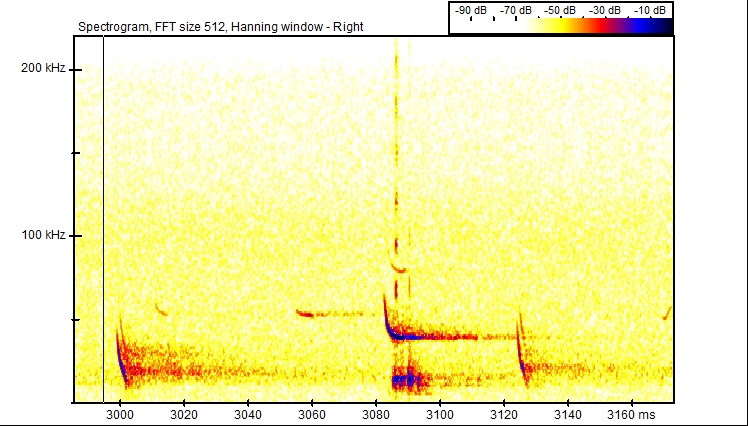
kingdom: Animalia
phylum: Chordata
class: Mammalia
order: Chiroptera
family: Vespertilionidae
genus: Plecotus
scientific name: Plecotus auritus
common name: Brun langøre
